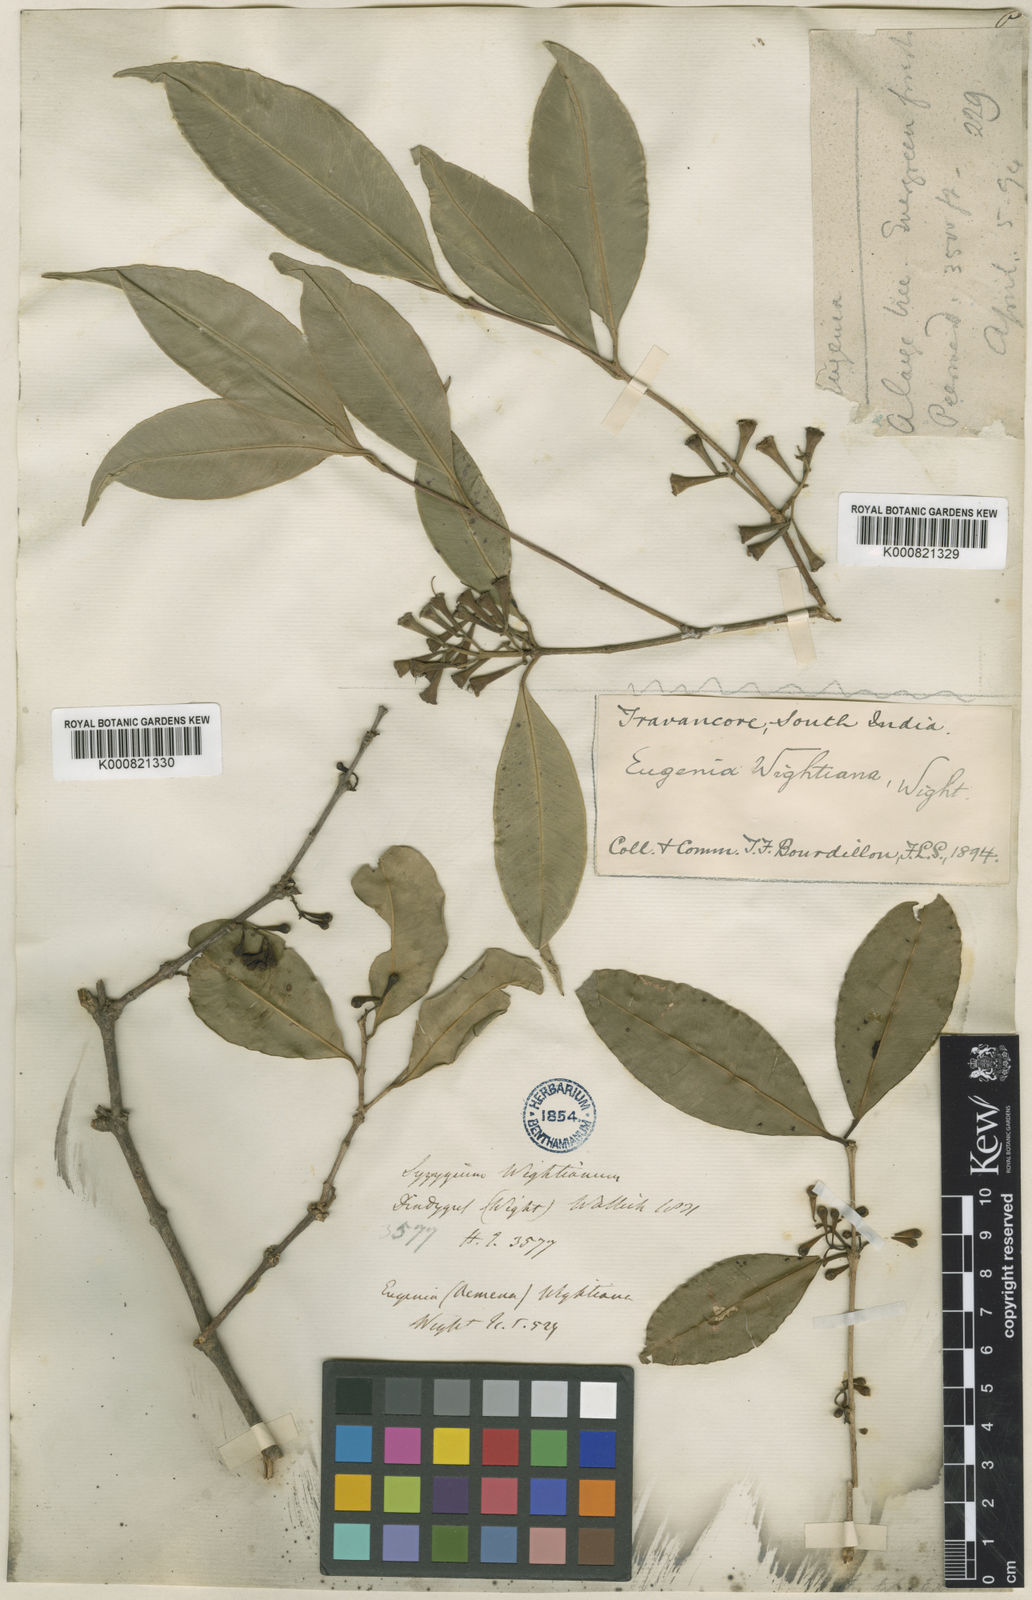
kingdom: Plantae
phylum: Tracheophyta
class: Magnoliopsida
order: Myrtales
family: Myrtaceae
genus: Syzygium
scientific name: Syzygium
